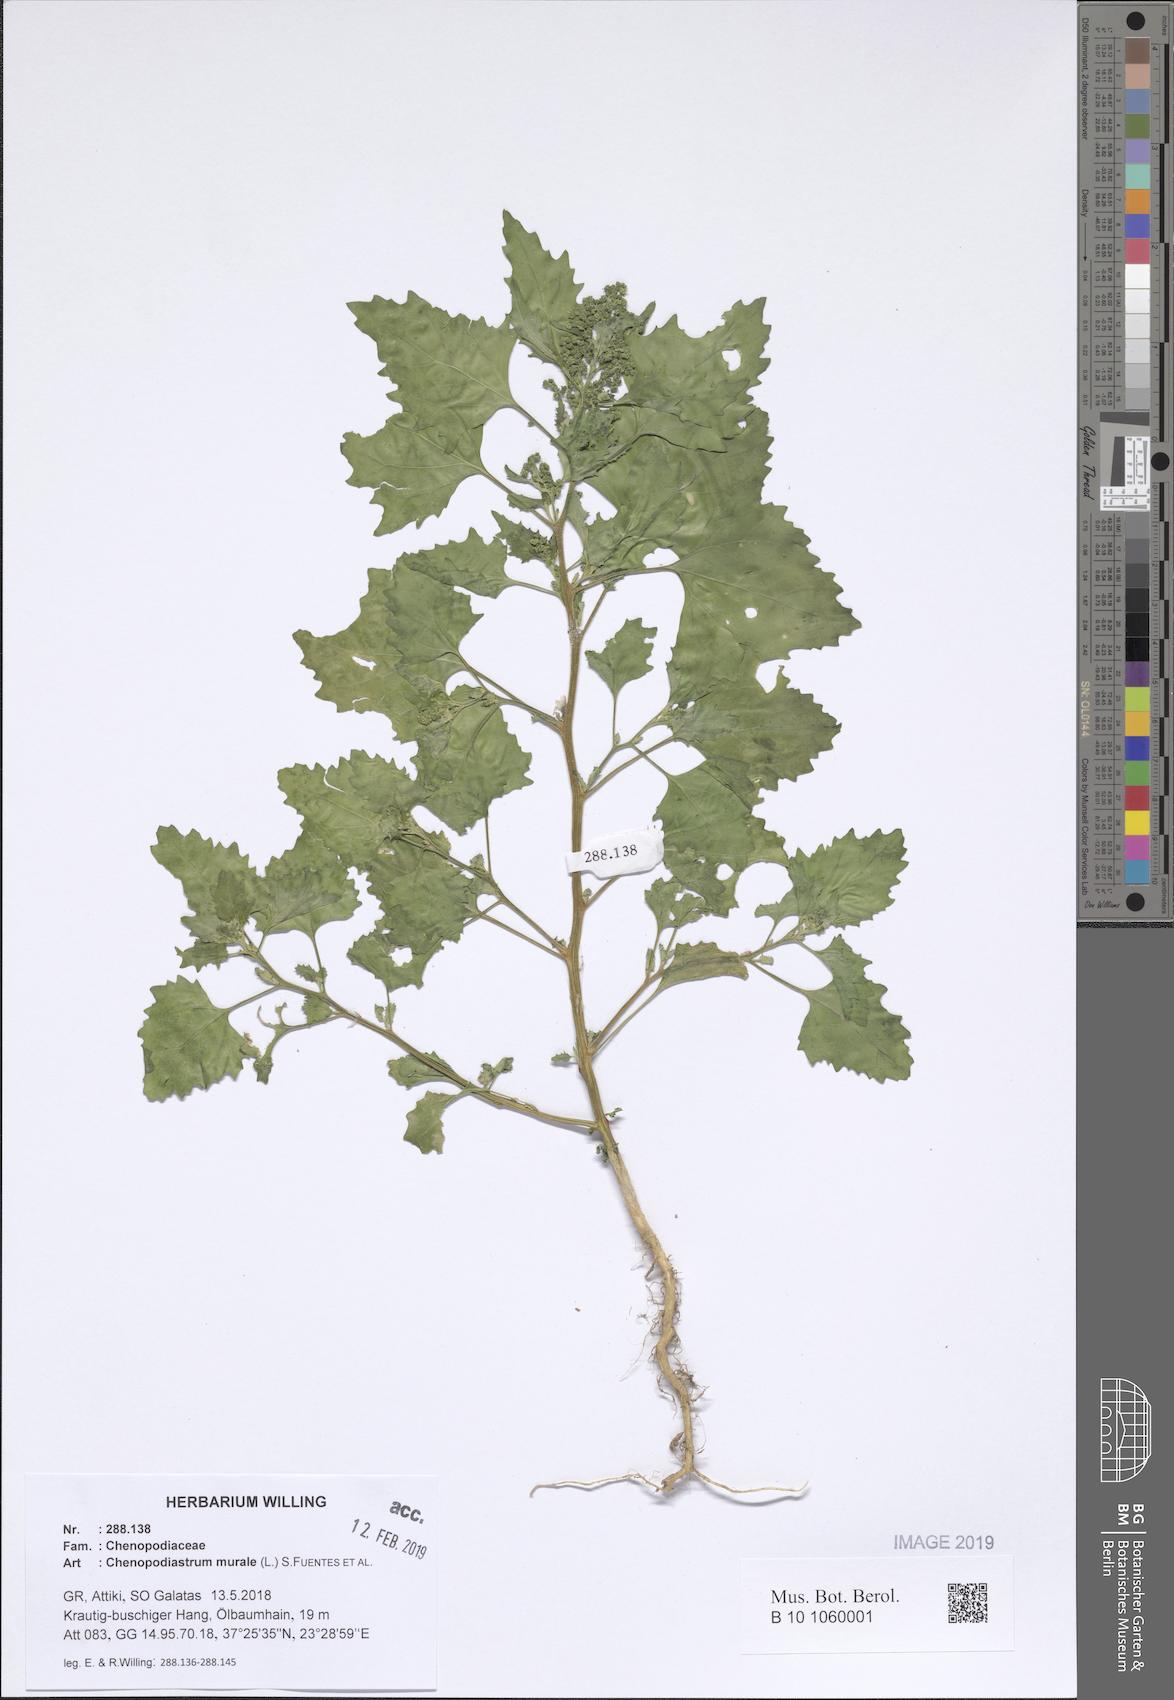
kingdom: Plantae
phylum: Tracheophyta
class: Magnoliopsida
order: Caryophyllales
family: Amaranthaceae
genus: Chenopodiastrum
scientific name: Chenopodiastrum murale
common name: Sowbane
